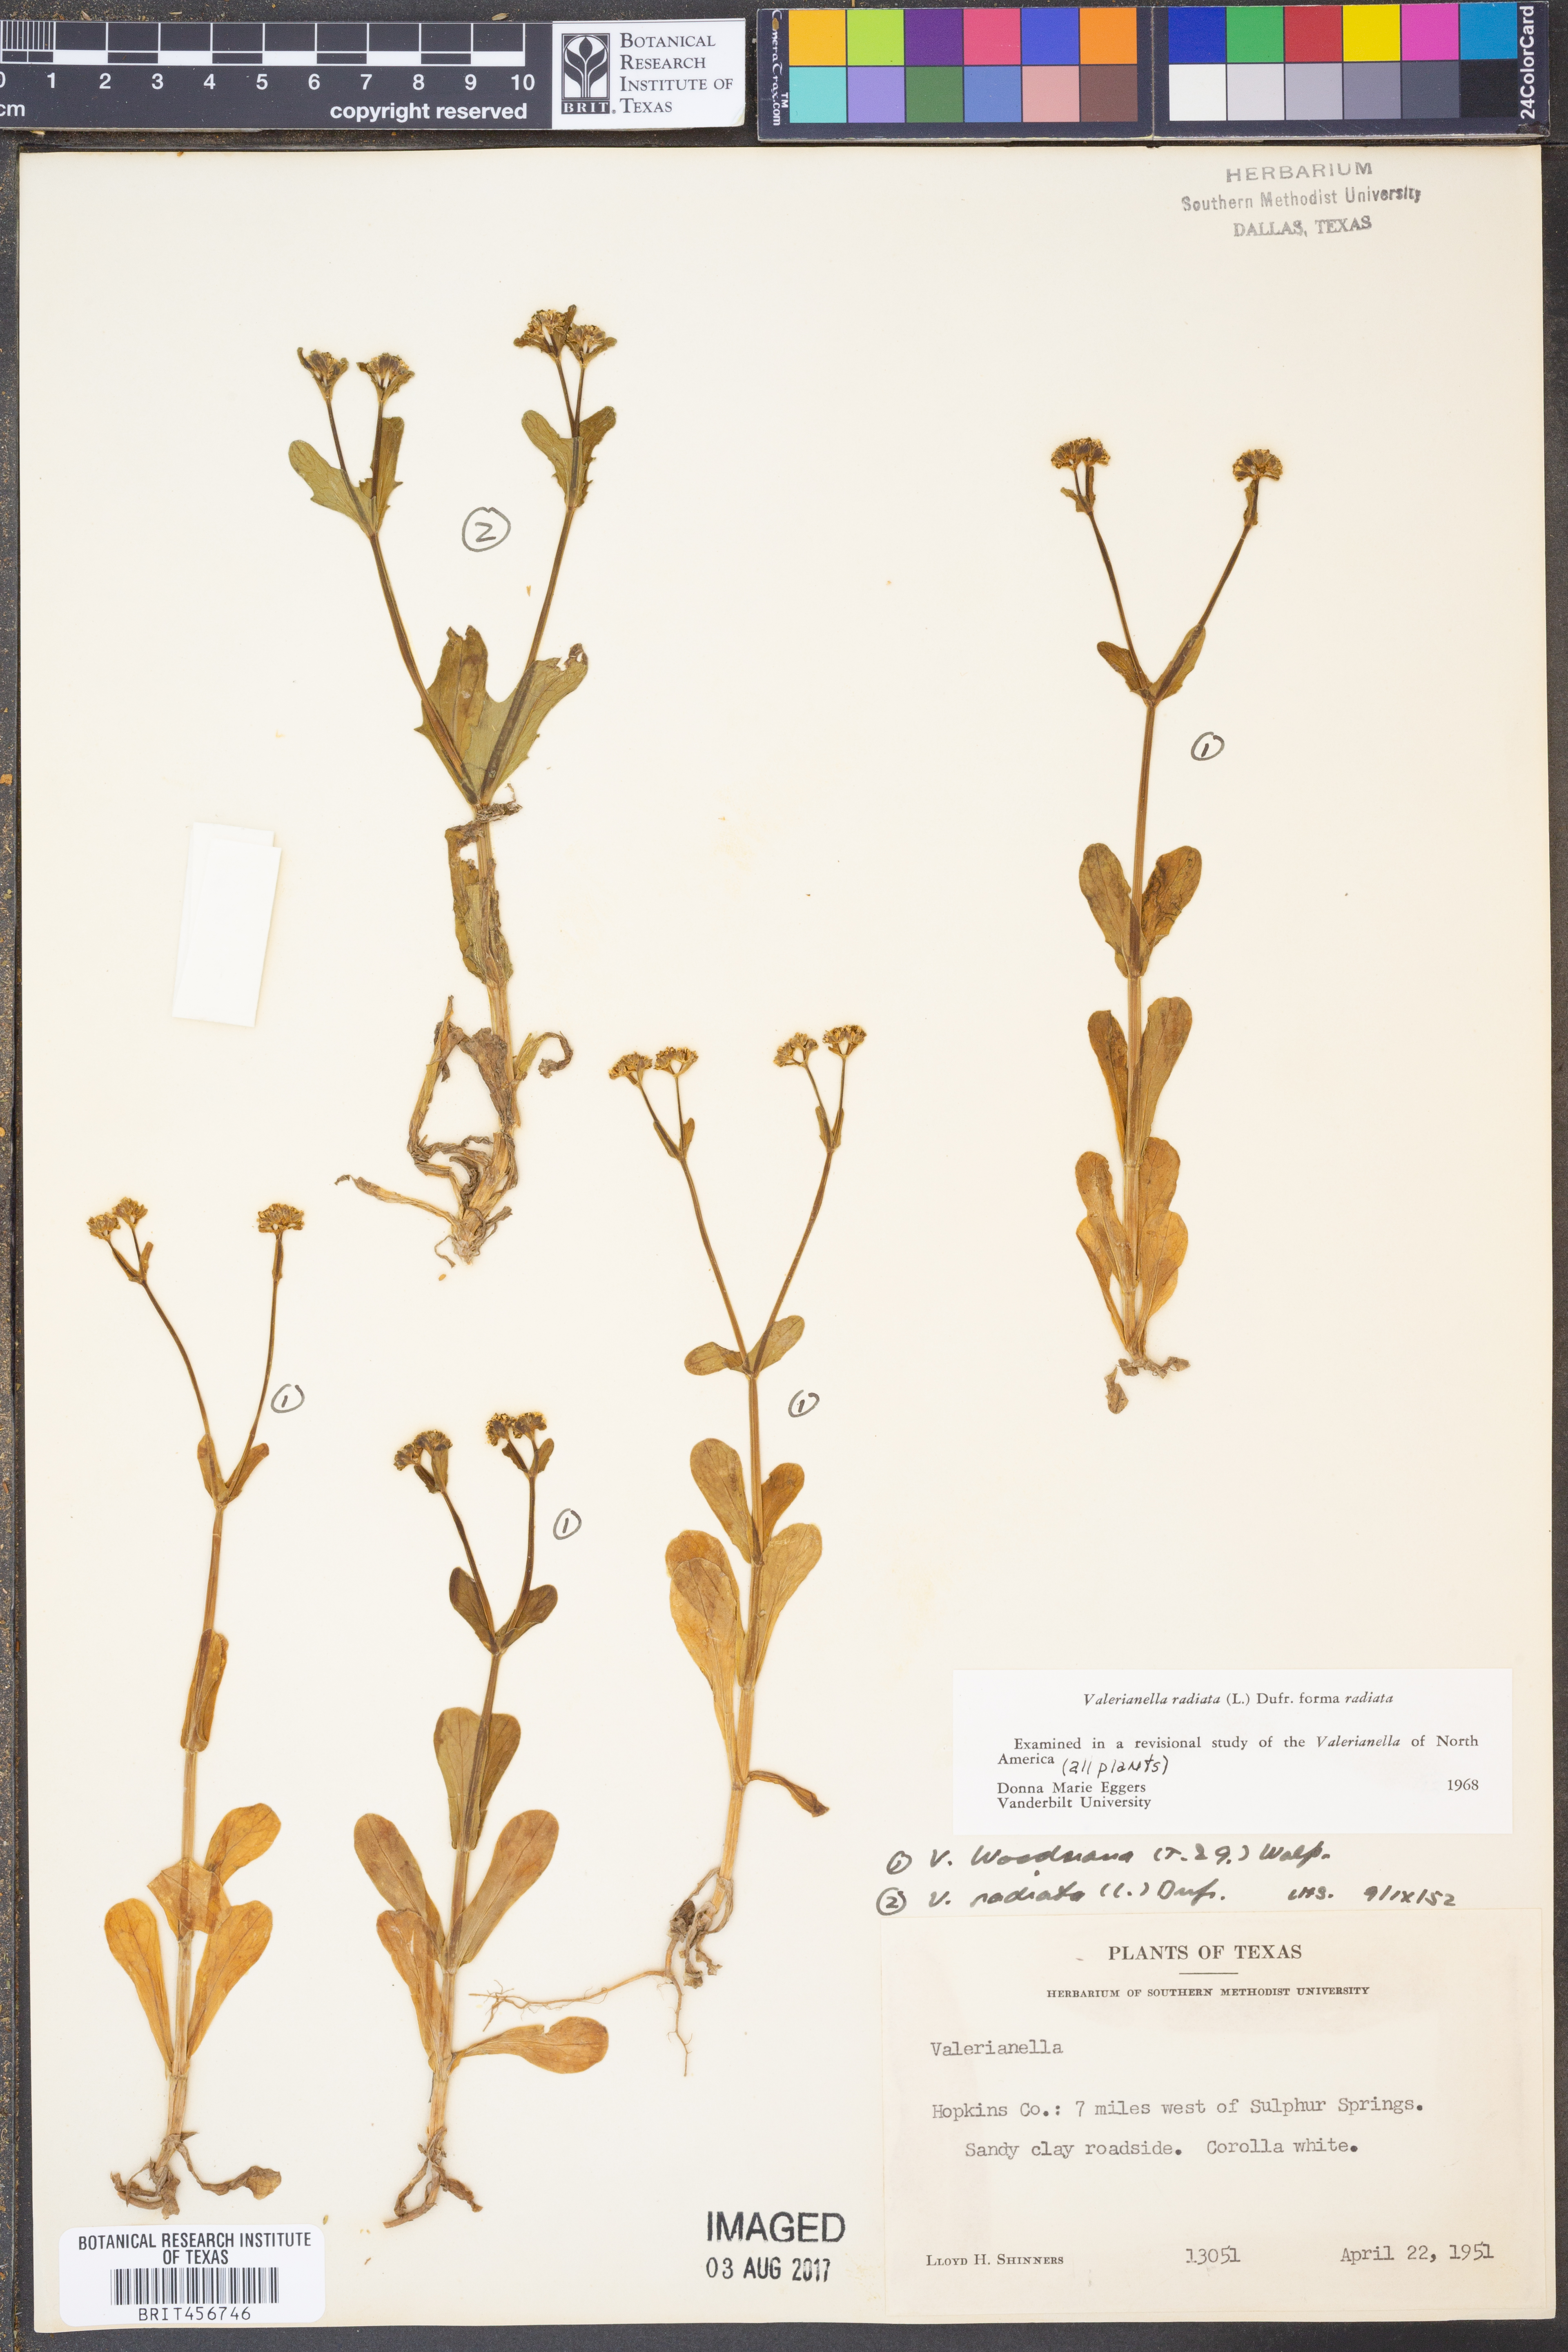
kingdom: Plantae
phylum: Tracheophyta
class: Magnoliopsida
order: Dipsacales
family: Caprifoliaceae
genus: Valerianella
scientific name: Valerianella radiata
